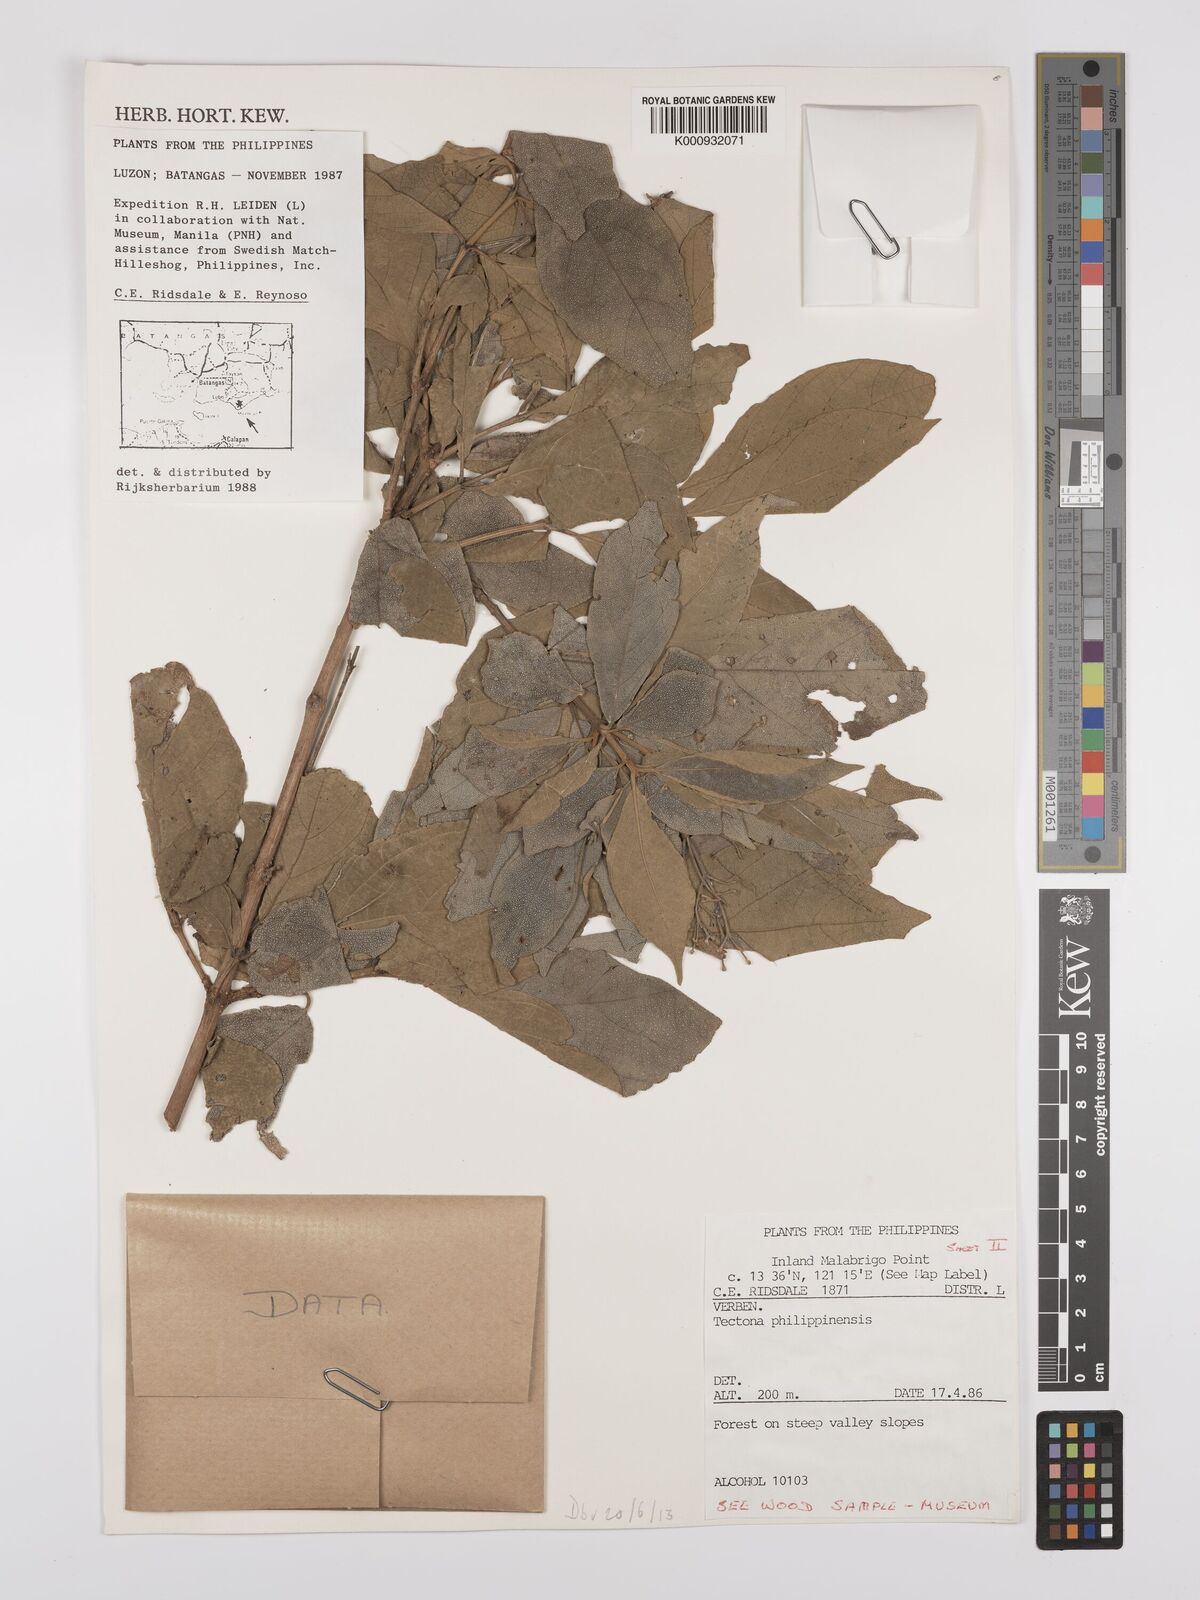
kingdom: Plantae
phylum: Tracheophyta
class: Magnoliopsida
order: Lamiales
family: Lamiaceae
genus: Tectona
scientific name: Tectona
